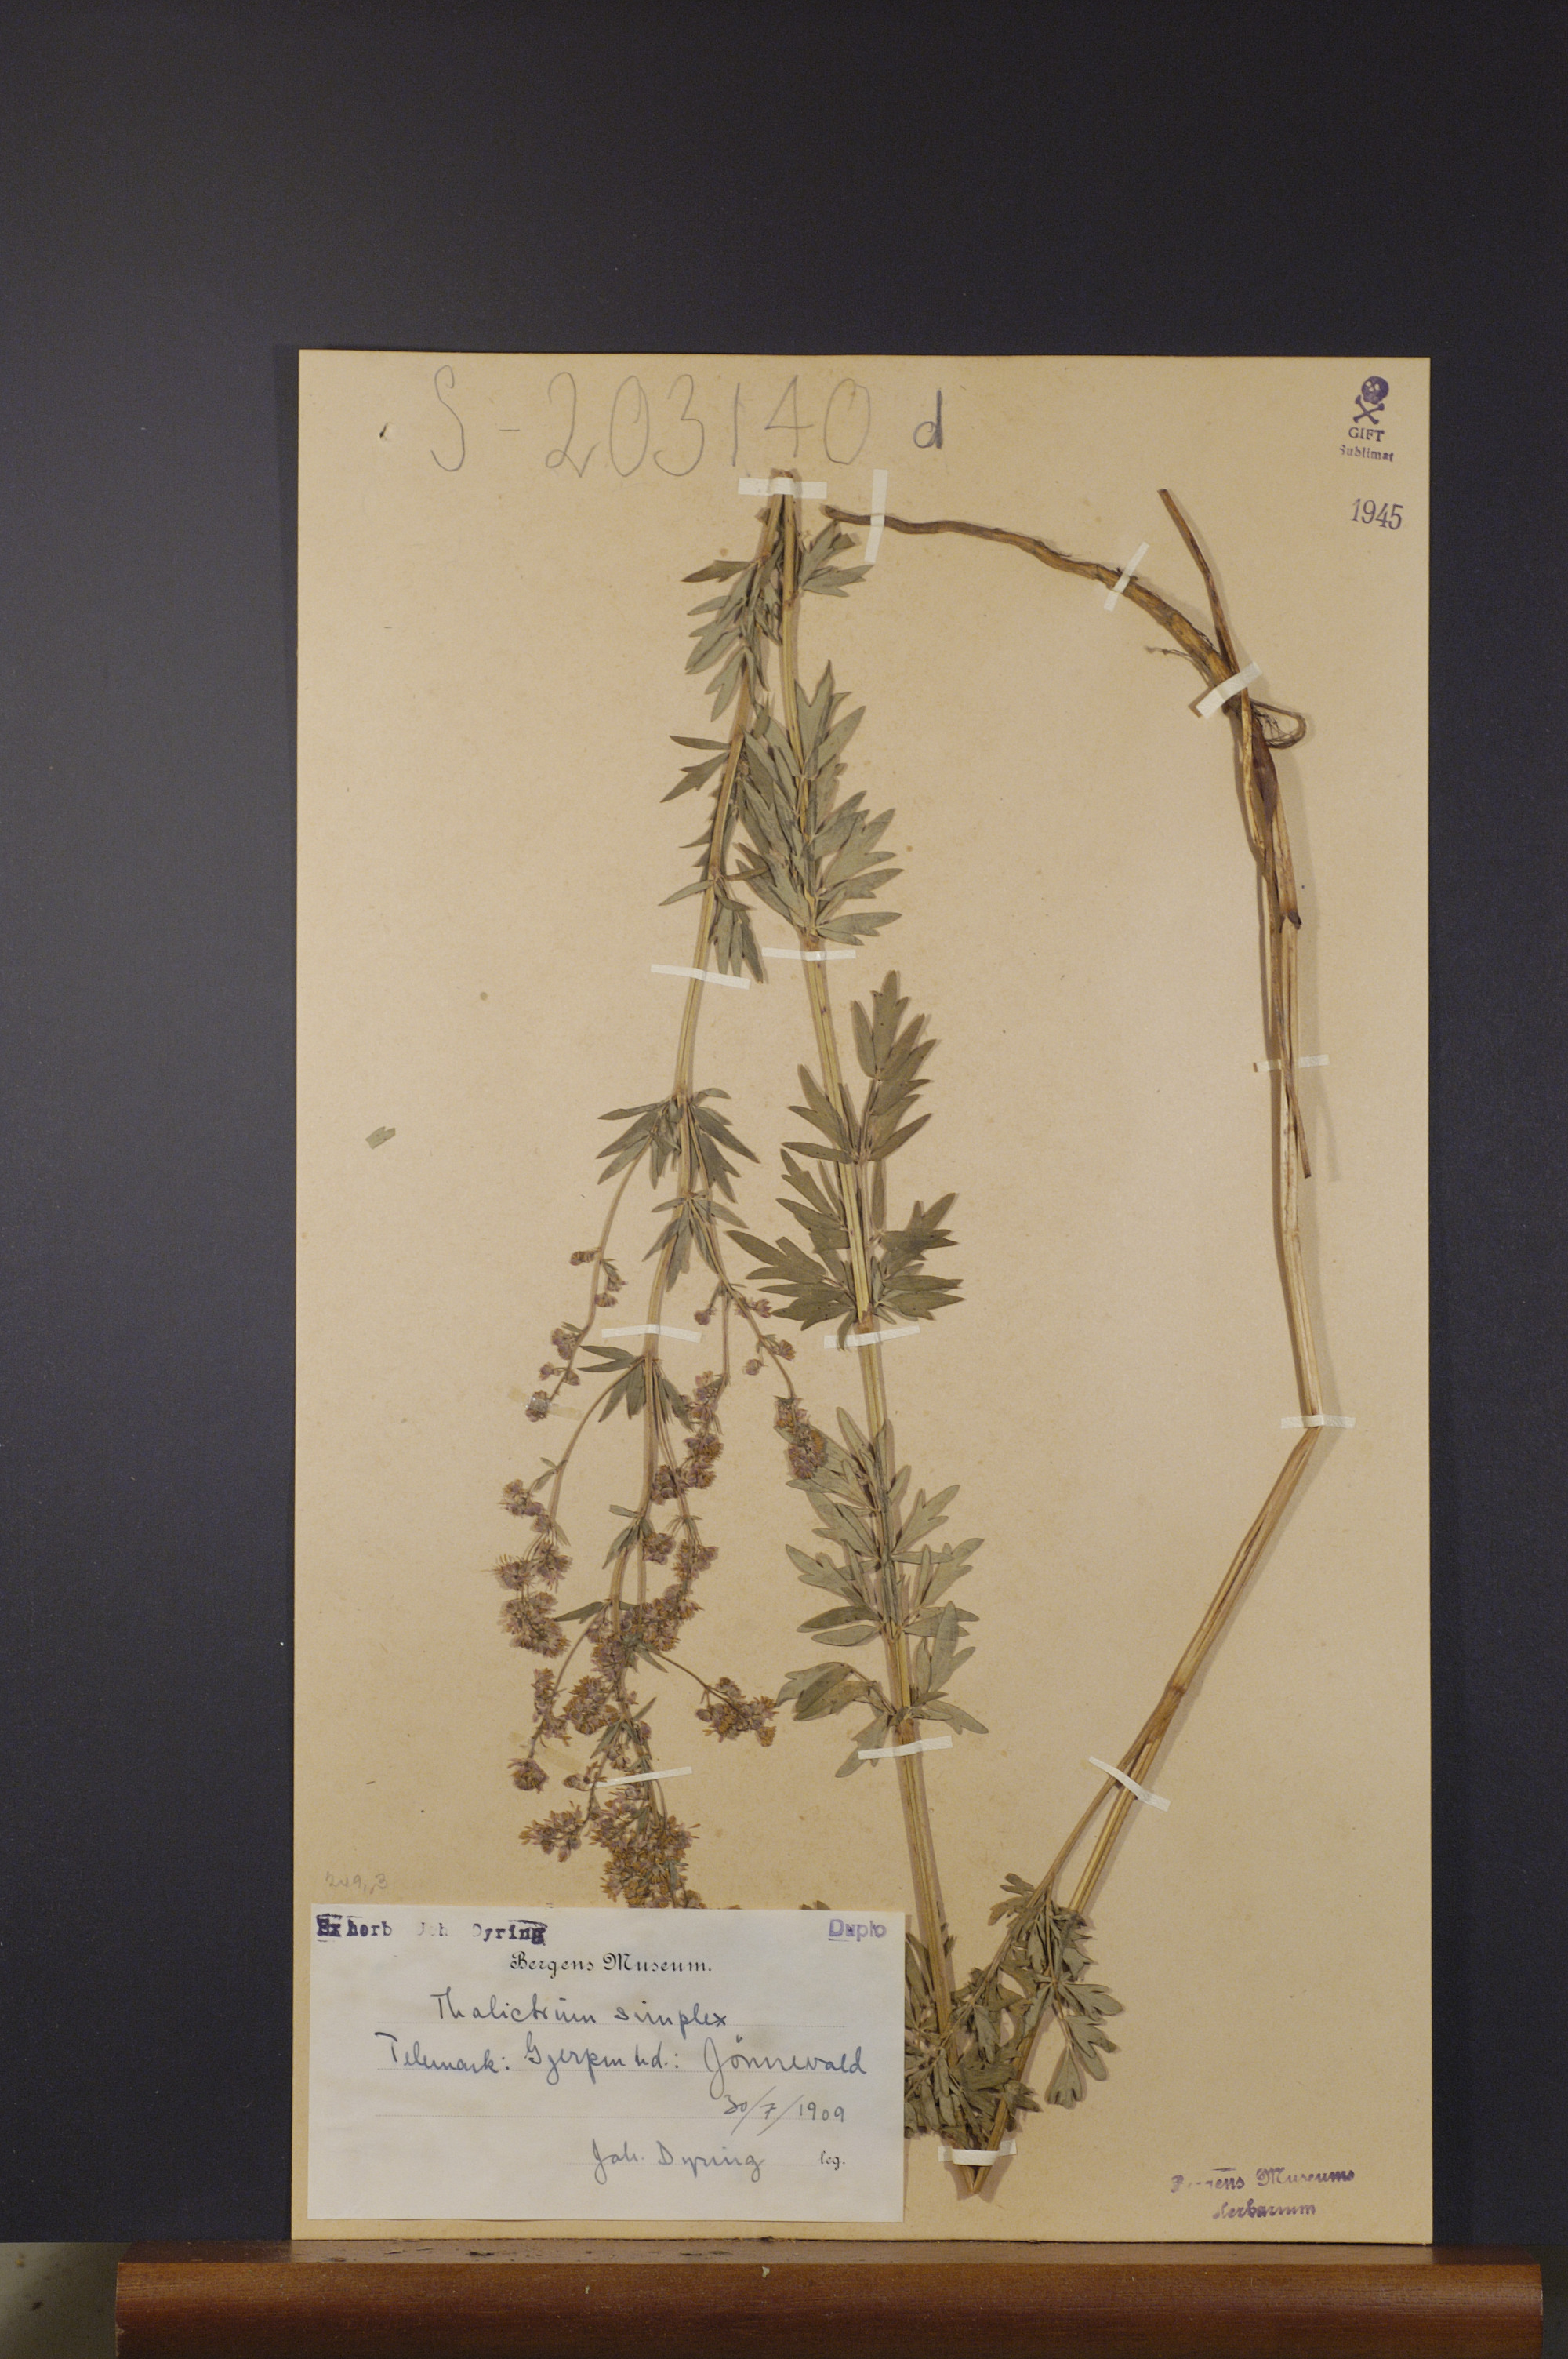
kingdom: Plantae
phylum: Tracheophyta
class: Magnoliopsida
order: Ranunculales
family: Ranunculaceae
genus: Thalictrum
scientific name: Thalictrum simplex
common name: Small meadow-rue
